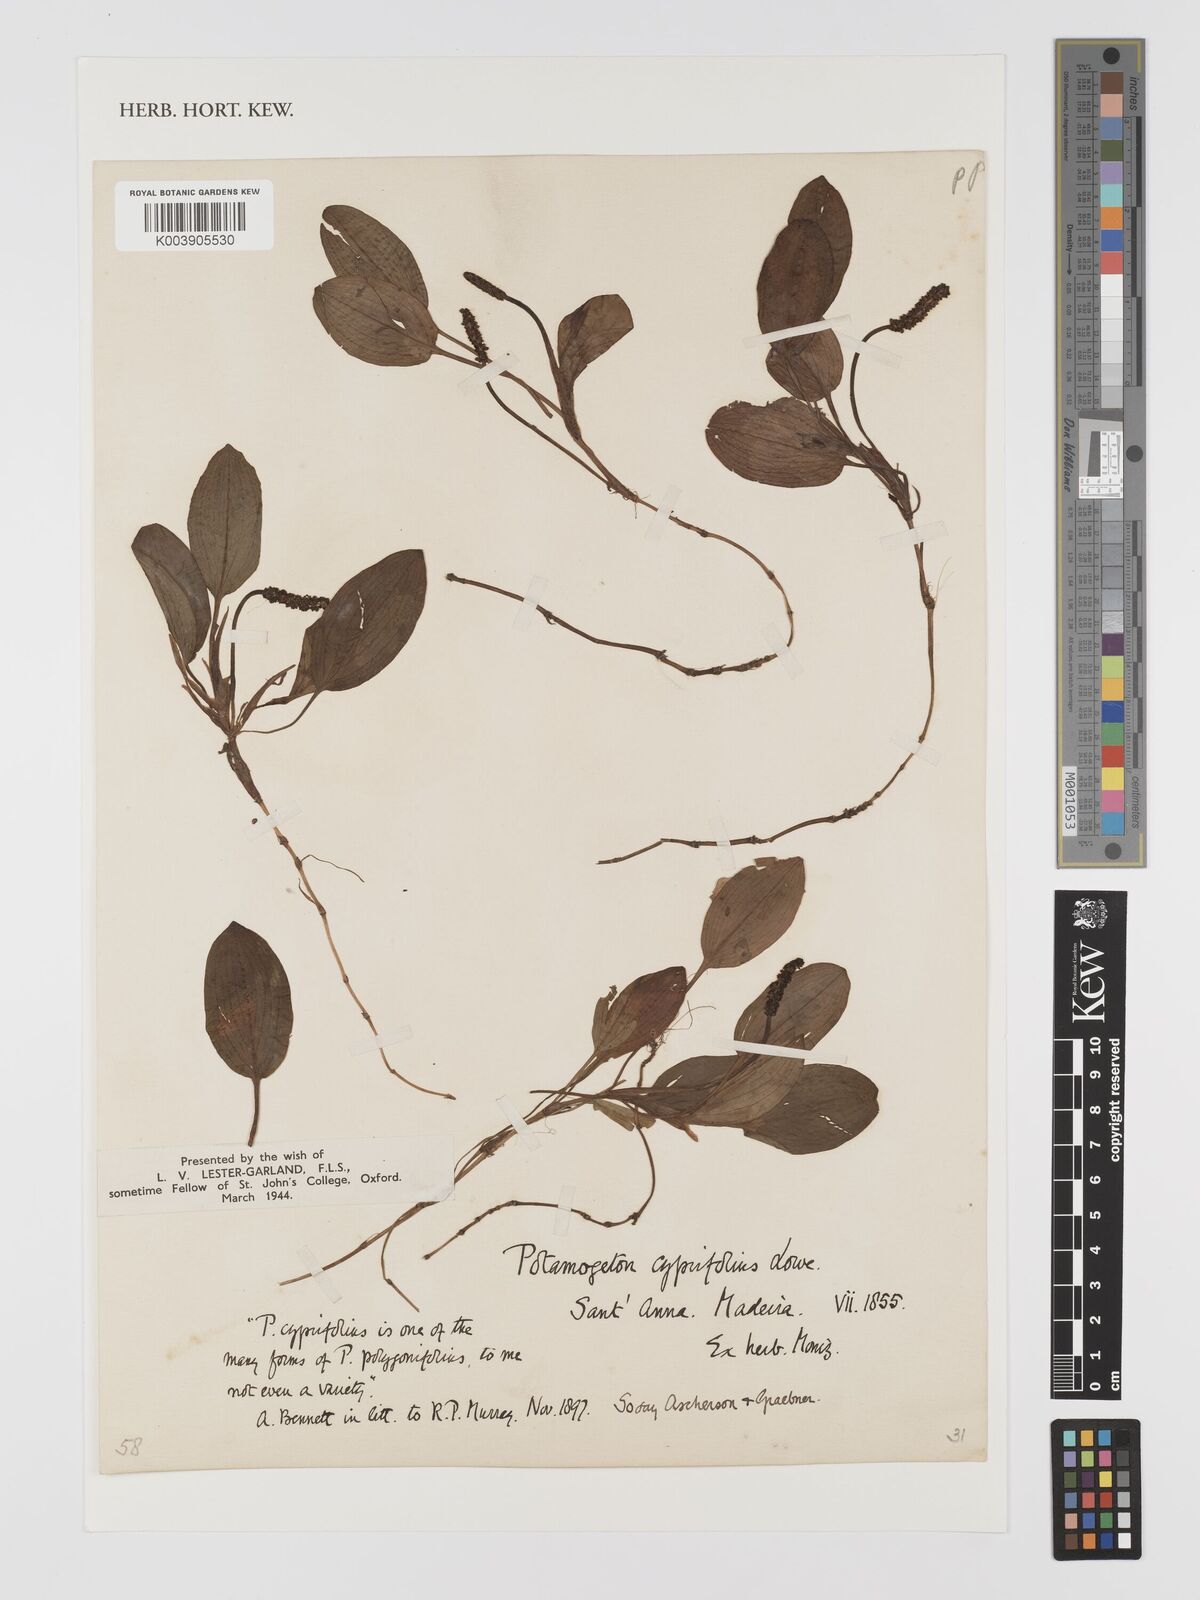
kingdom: Plantae
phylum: Tracheophyta
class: Liliopsida
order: Alismatales
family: Potamogetonaceae
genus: Potamogeton
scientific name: Potamogeton polygonifolius
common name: Bog pondweed
